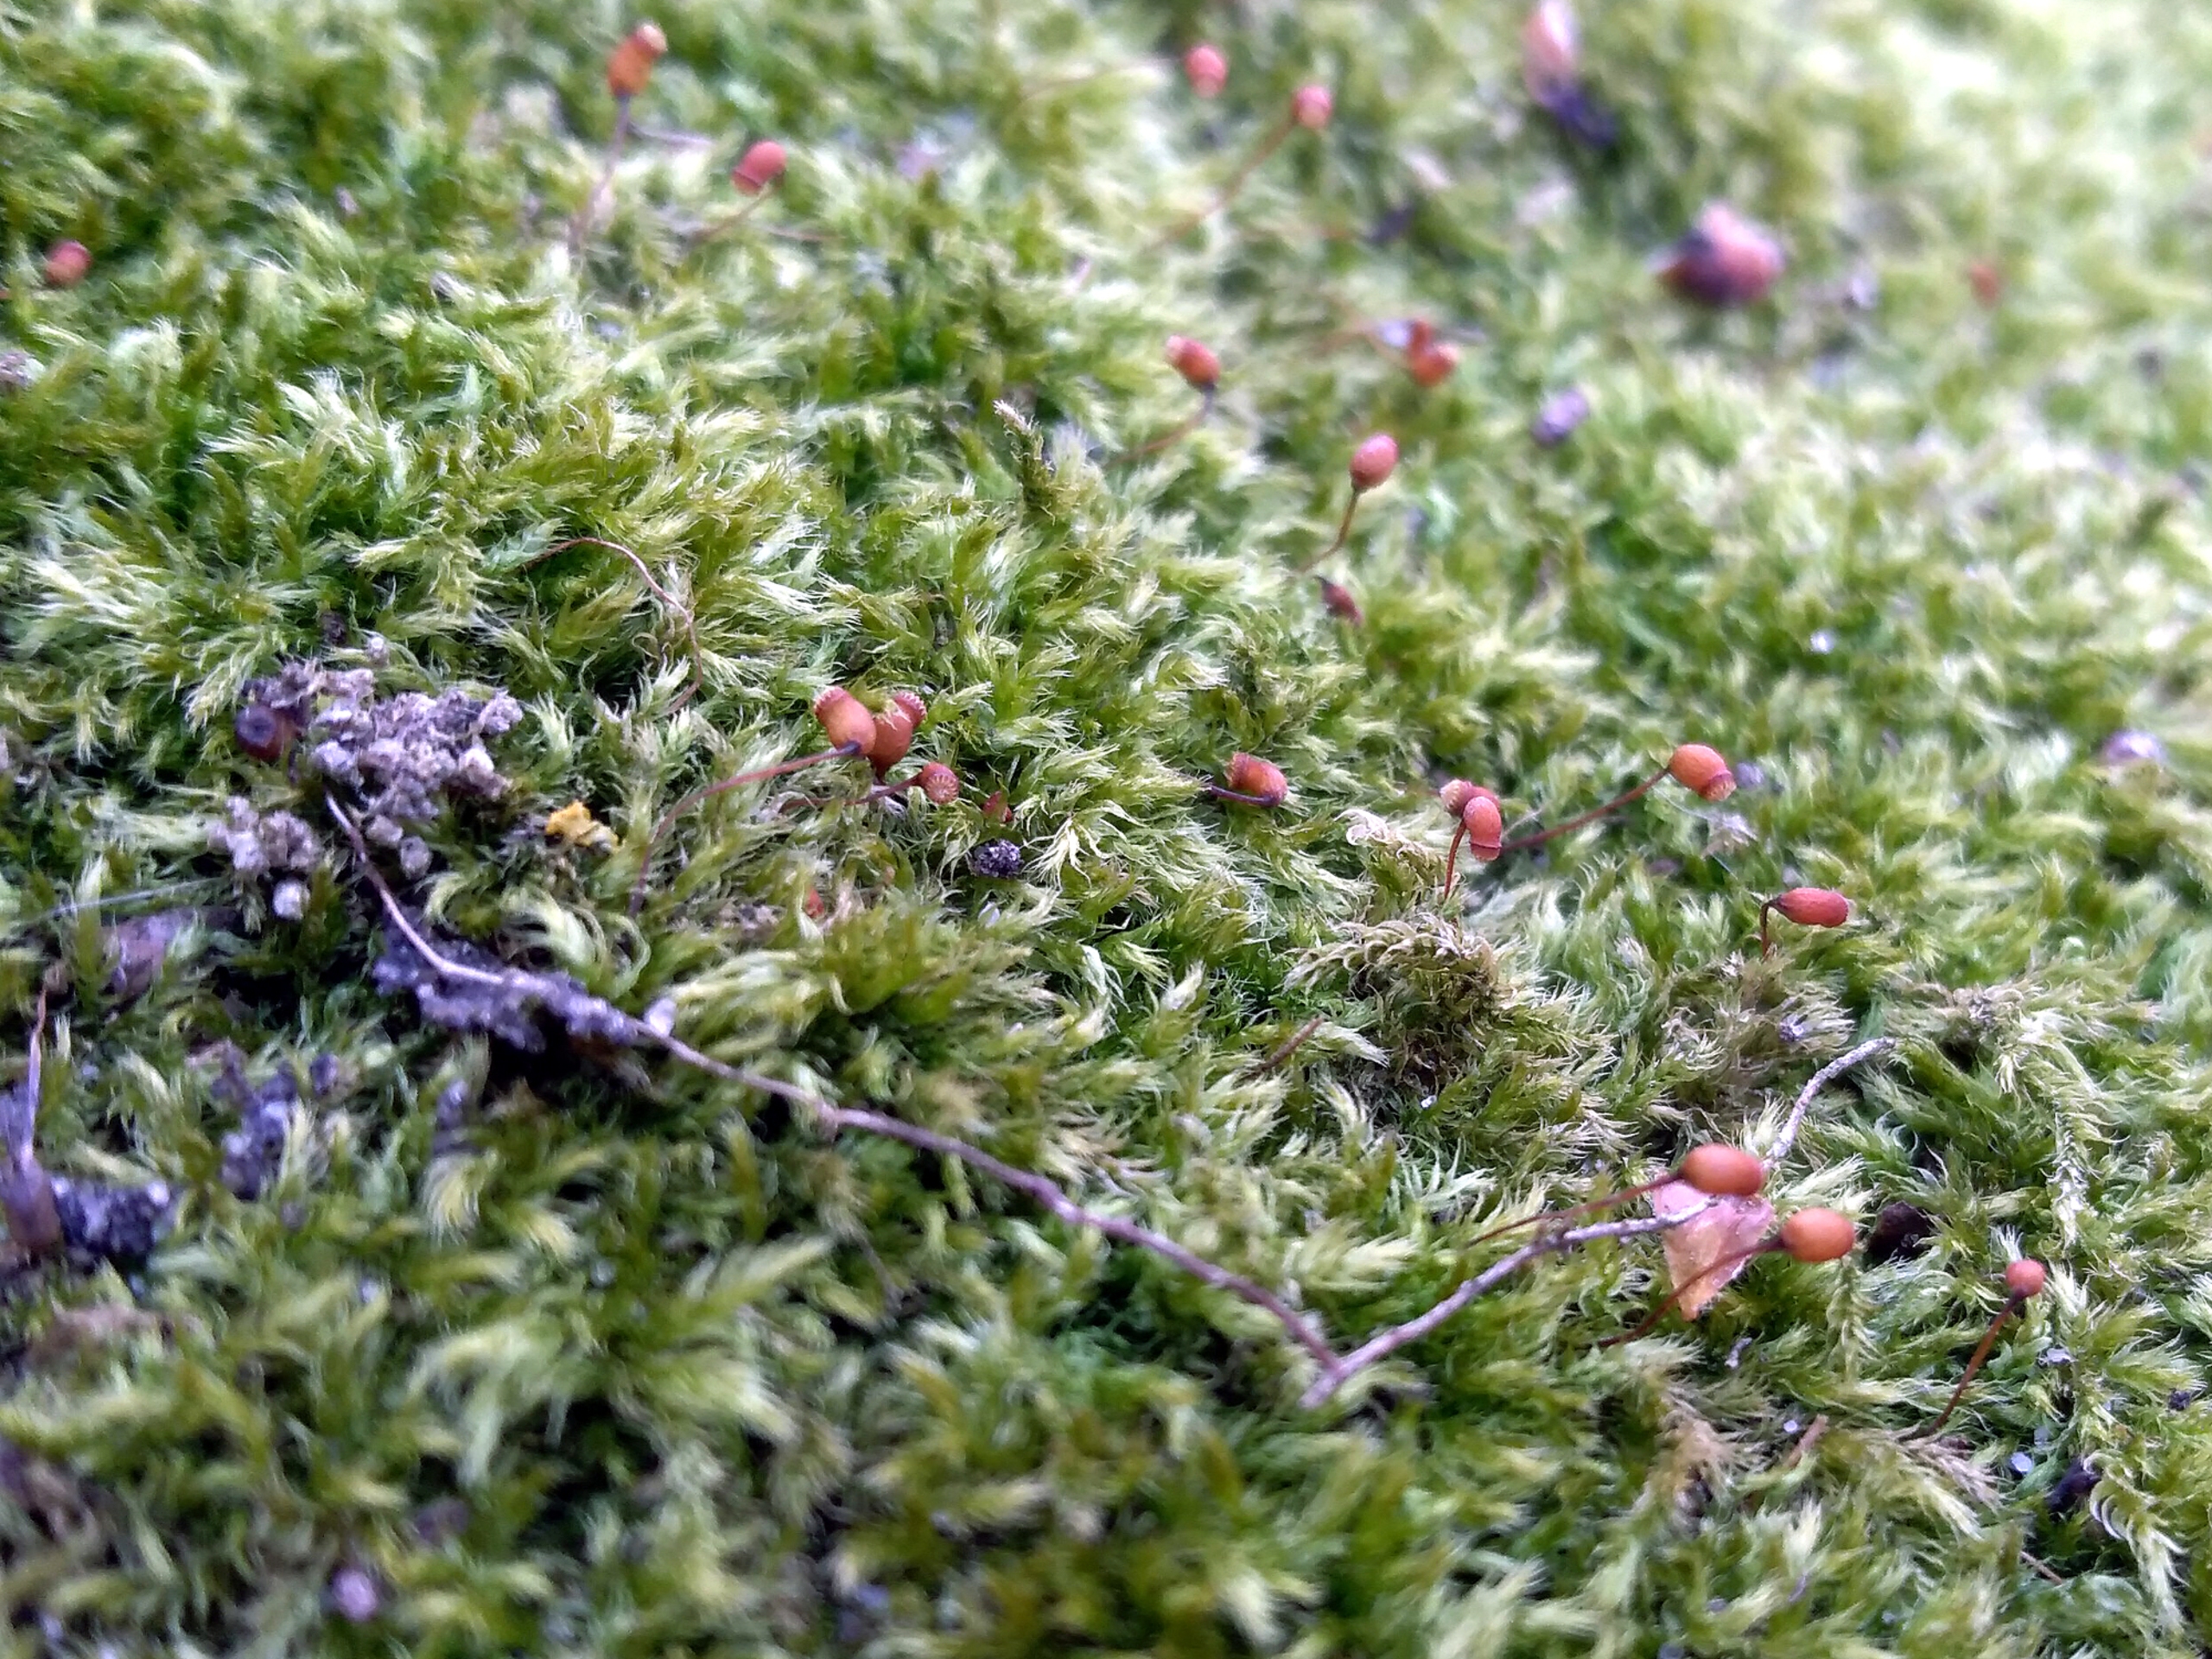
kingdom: Plantae
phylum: Bryophyta
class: Bryopsida
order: Hypnales
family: Brachytheciaceae
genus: Brachytheciastrum
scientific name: Brachytheciastrum velutinum
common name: Fløjls-kortkapsel
